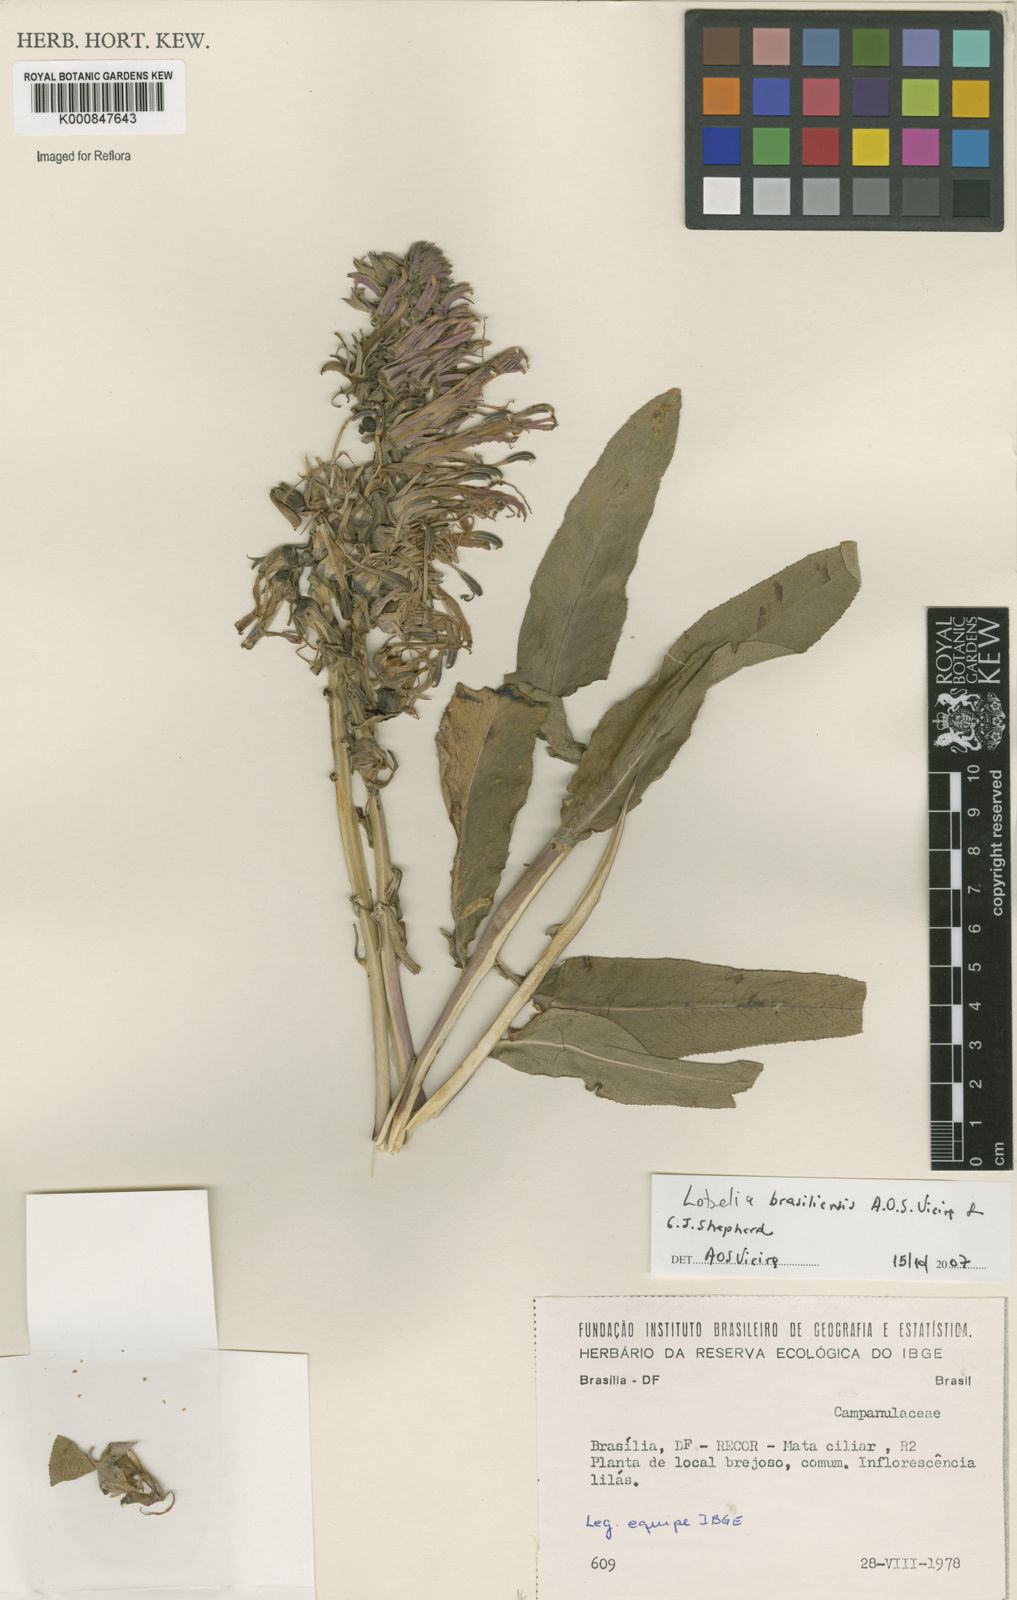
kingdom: Plantae
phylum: Tracheophyta
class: Magnoliopsida
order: Asterales
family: Campanulaceae
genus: Lobelia
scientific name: Lobelia brasiliensis
